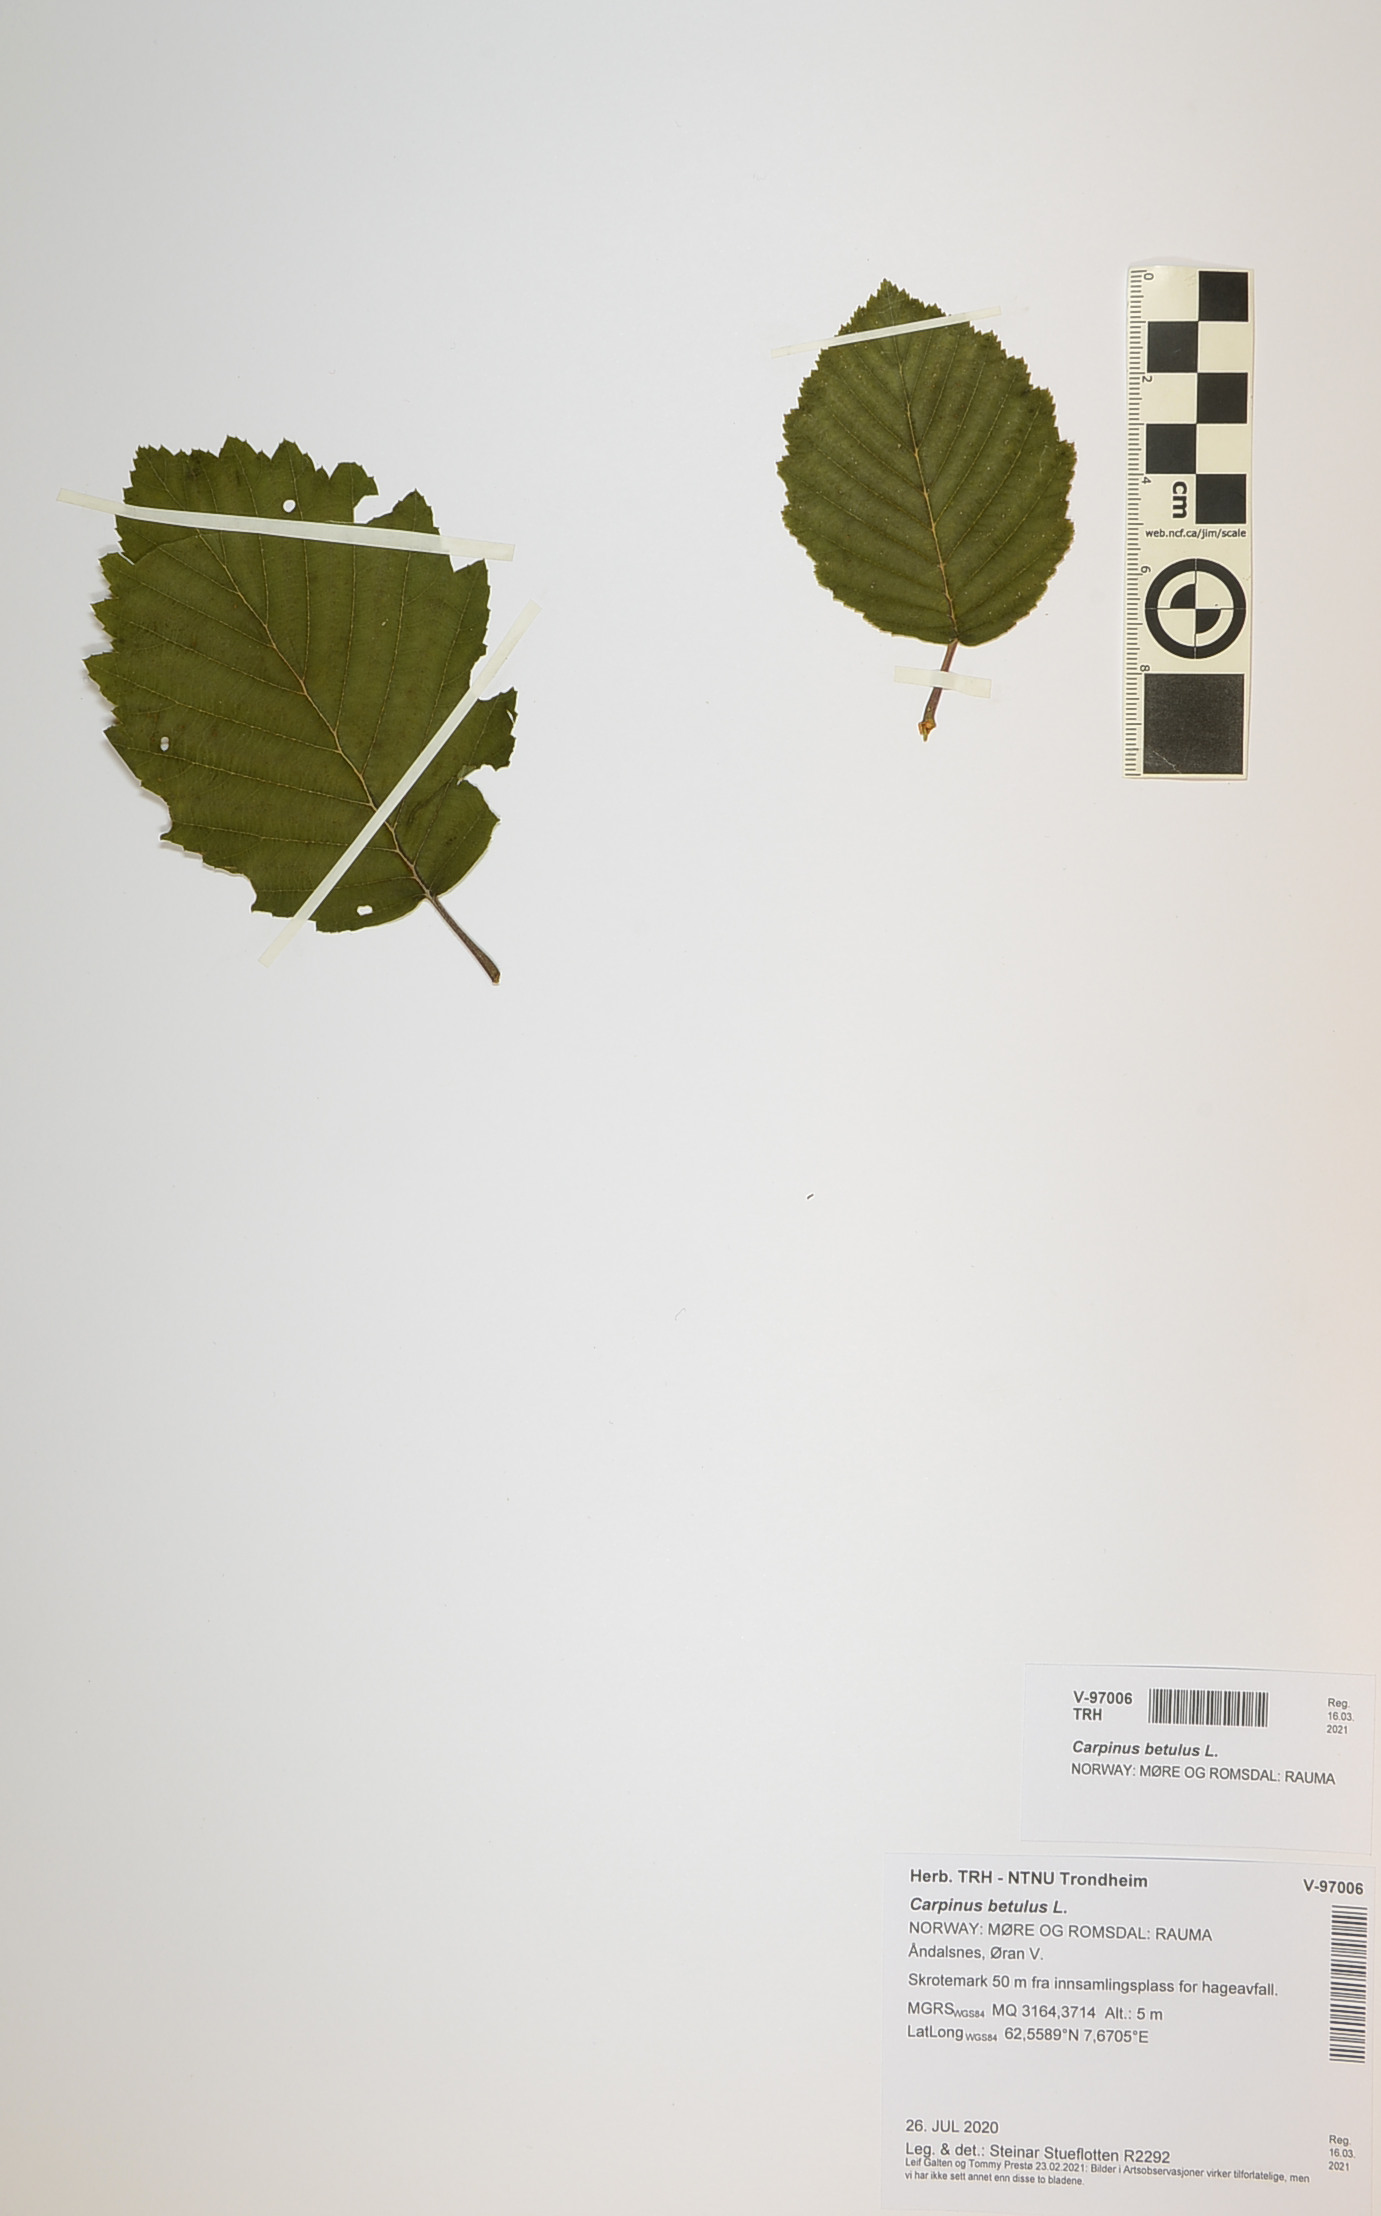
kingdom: Plantae
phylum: Tracheophyta
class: Magnoliopsida
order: Fagales
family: Betulaceae
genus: Carpinus
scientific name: Carpinus betulus
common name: Hornbeam
